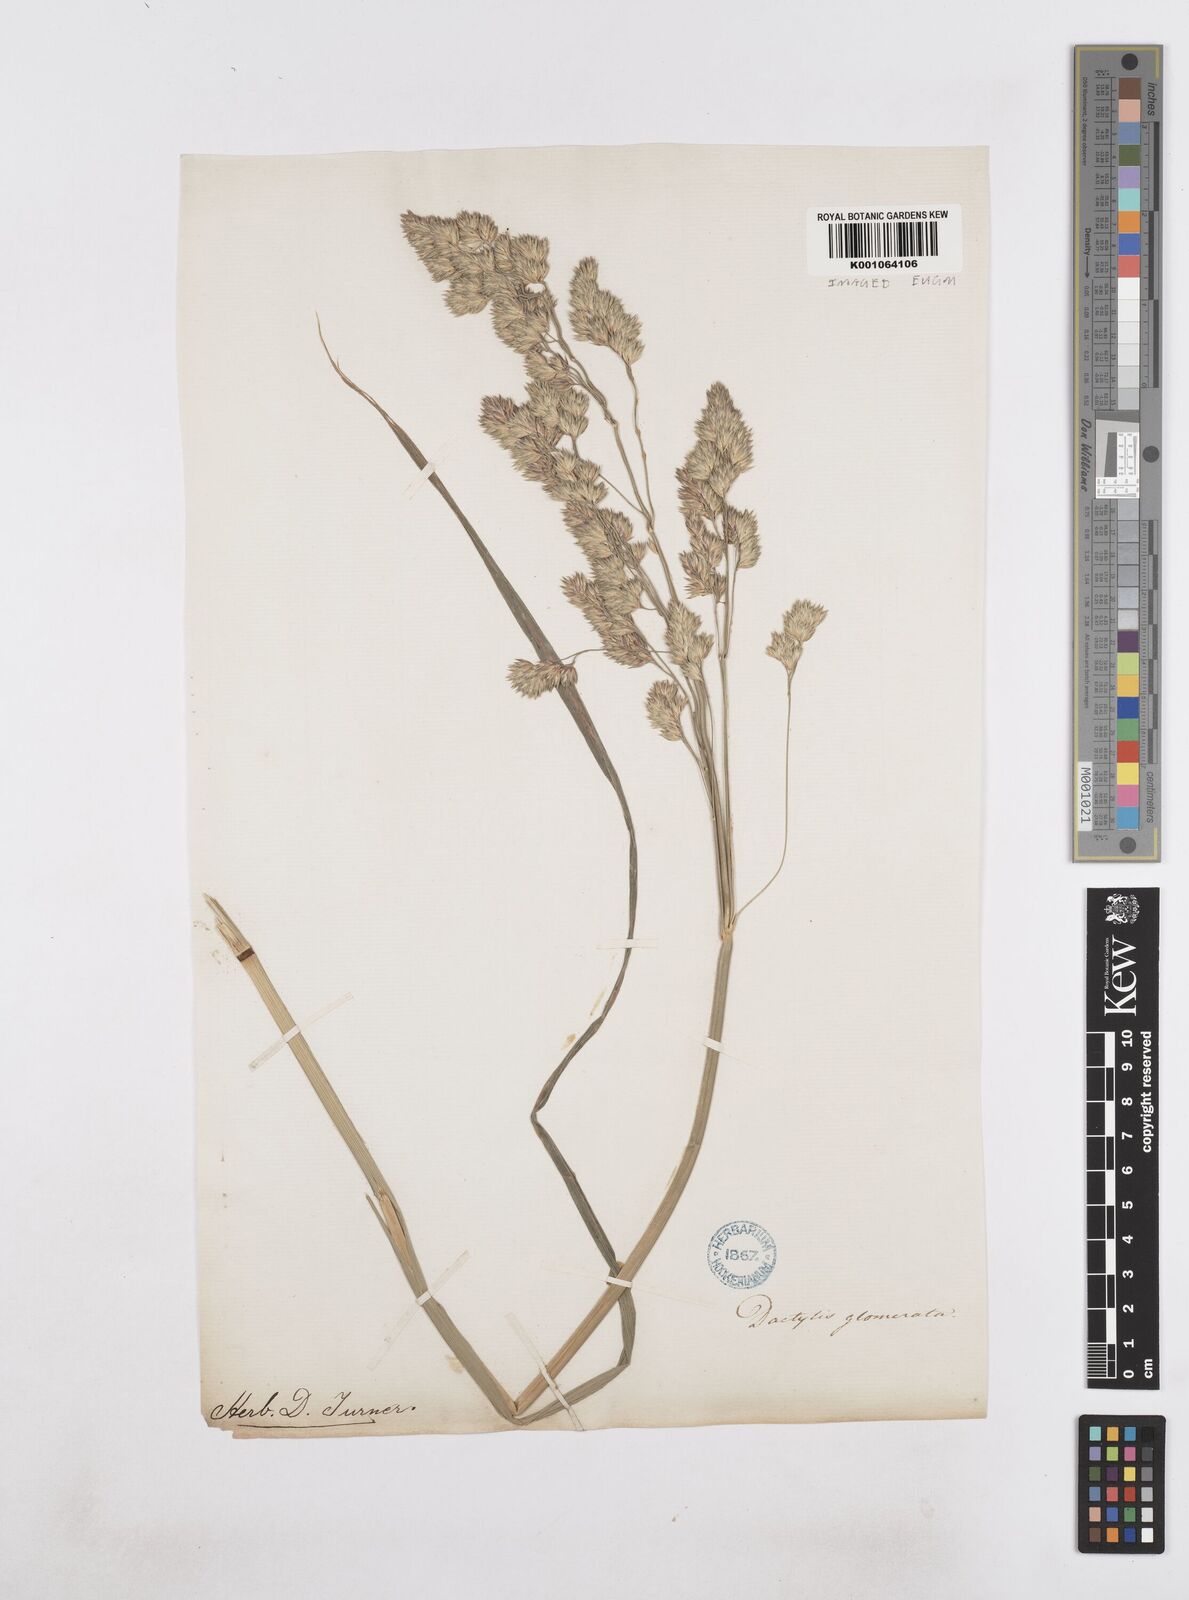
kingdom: Plantae
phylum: Tracheophyta
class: Liliopsida
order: Poales
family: Poaceae
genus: Dactylis
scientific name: Dactylis glomerata
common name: Orchardgrass
